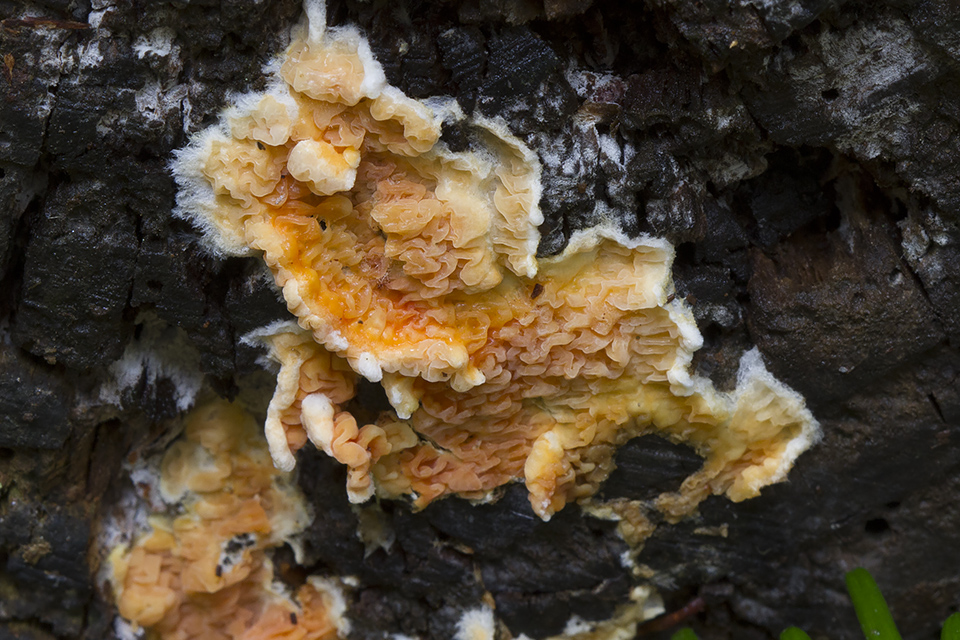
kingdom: Fungi
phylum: Basidiomycota
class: Agaricomycetes
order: Boletales
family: Coniophoraceae
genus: Penttilamyces
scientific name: Penttilamyces romellii
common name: Romells hussvamp
